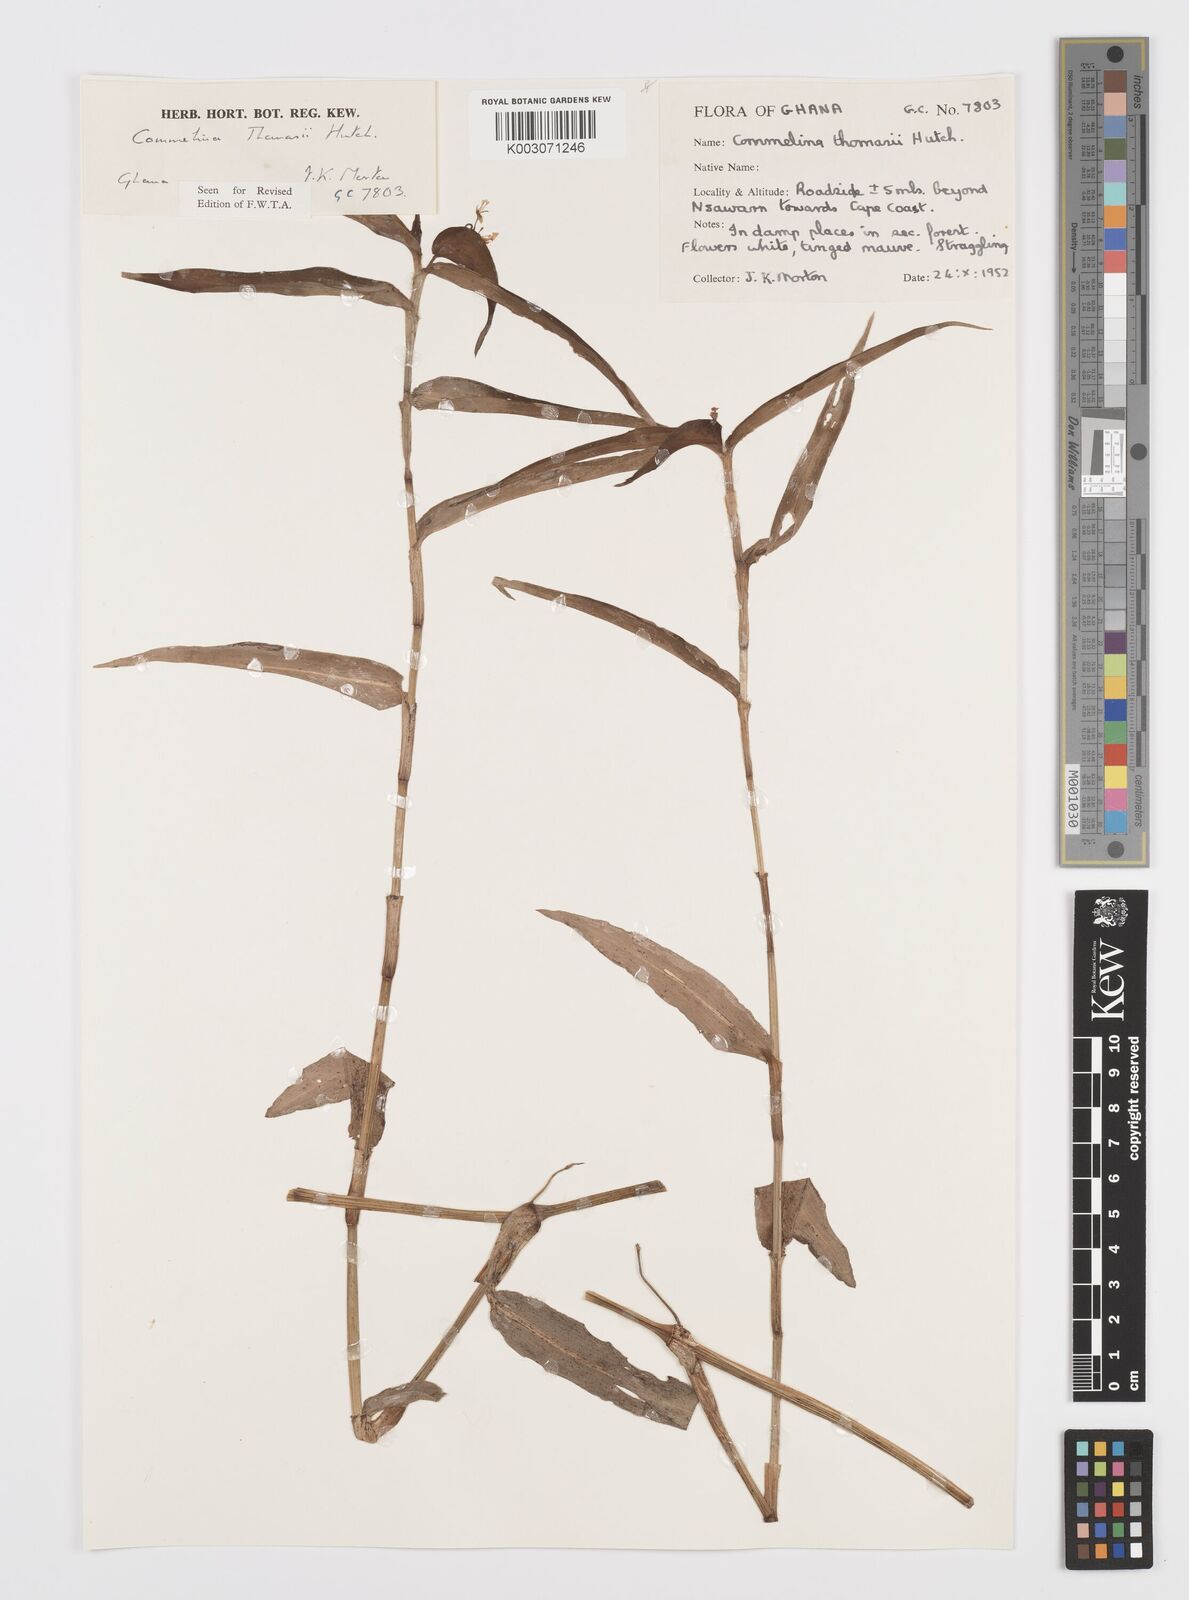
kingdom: Plantae
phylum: Tracheophyta
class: Liliopsida
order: Commelinales
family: Commelinaceae
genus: Commelina
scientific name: Commelina acutispatha
